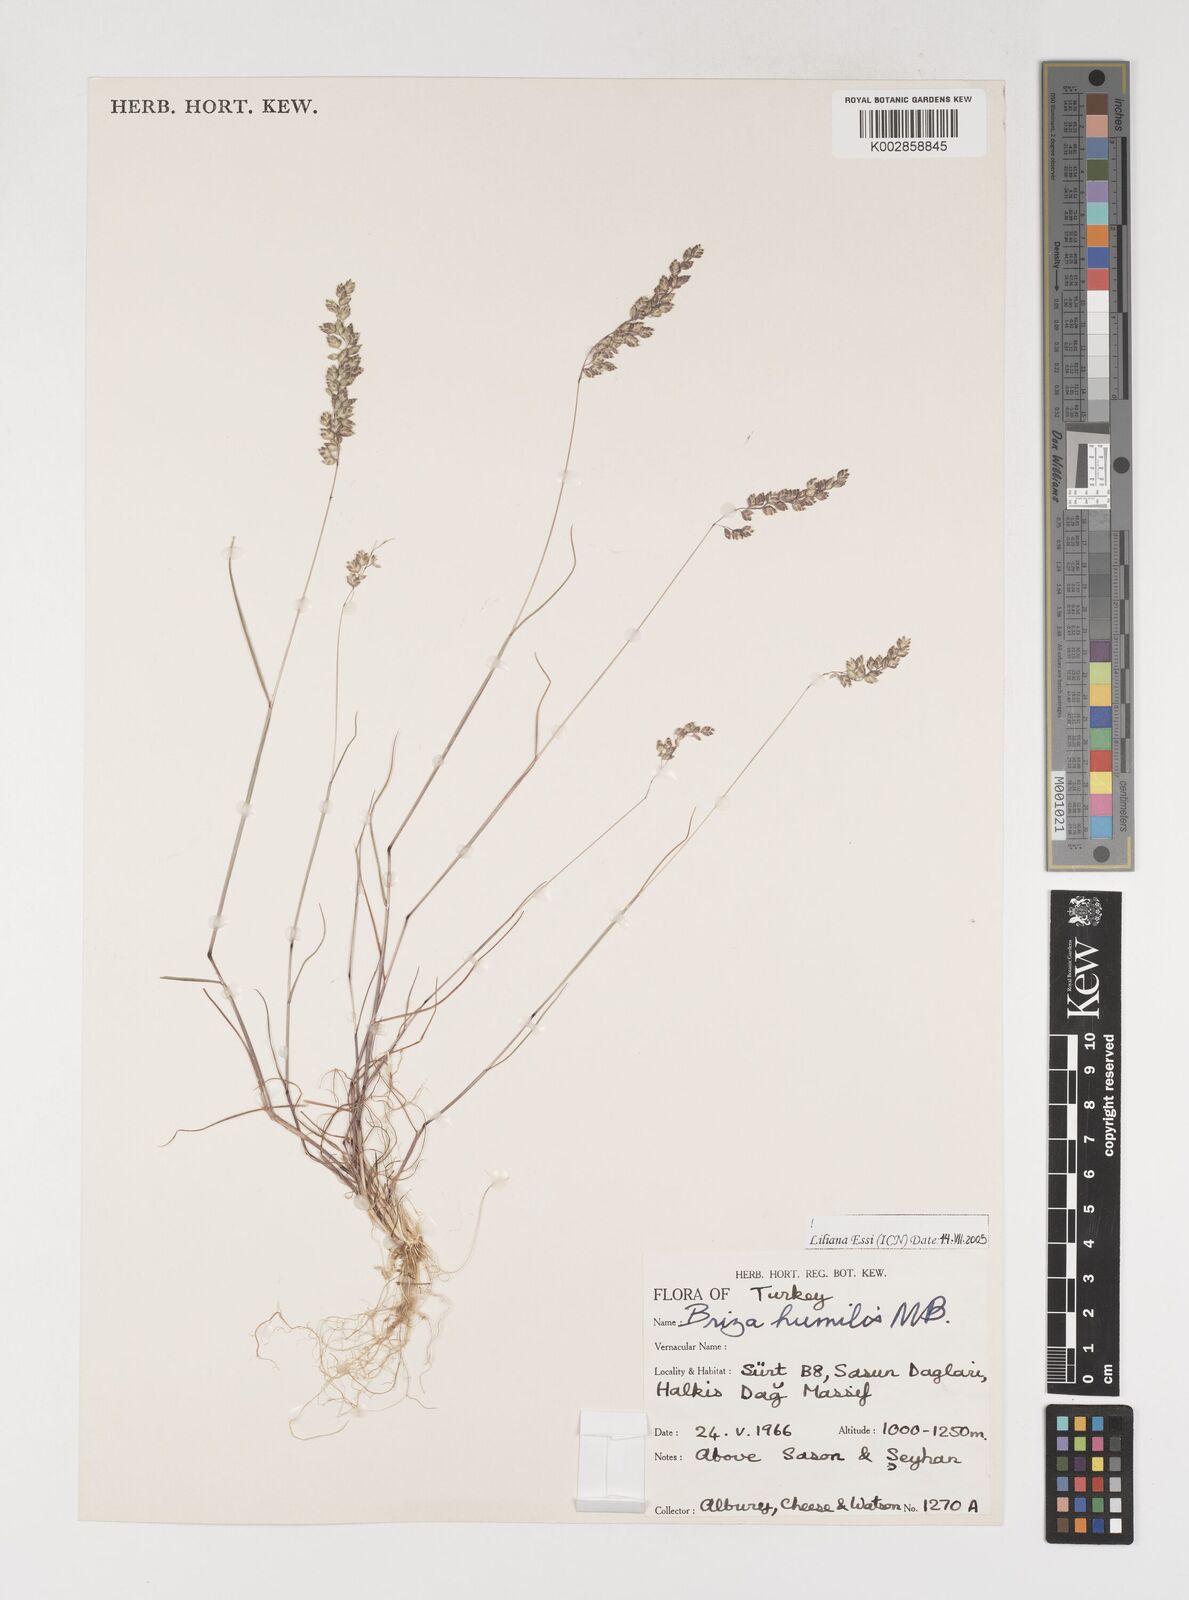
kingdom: Plantae
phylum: Tracheophyta
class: Liliopsida
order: Poales
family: Poaceae
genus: Briza
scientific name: Briza humilis
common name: Spiked quaking grass
